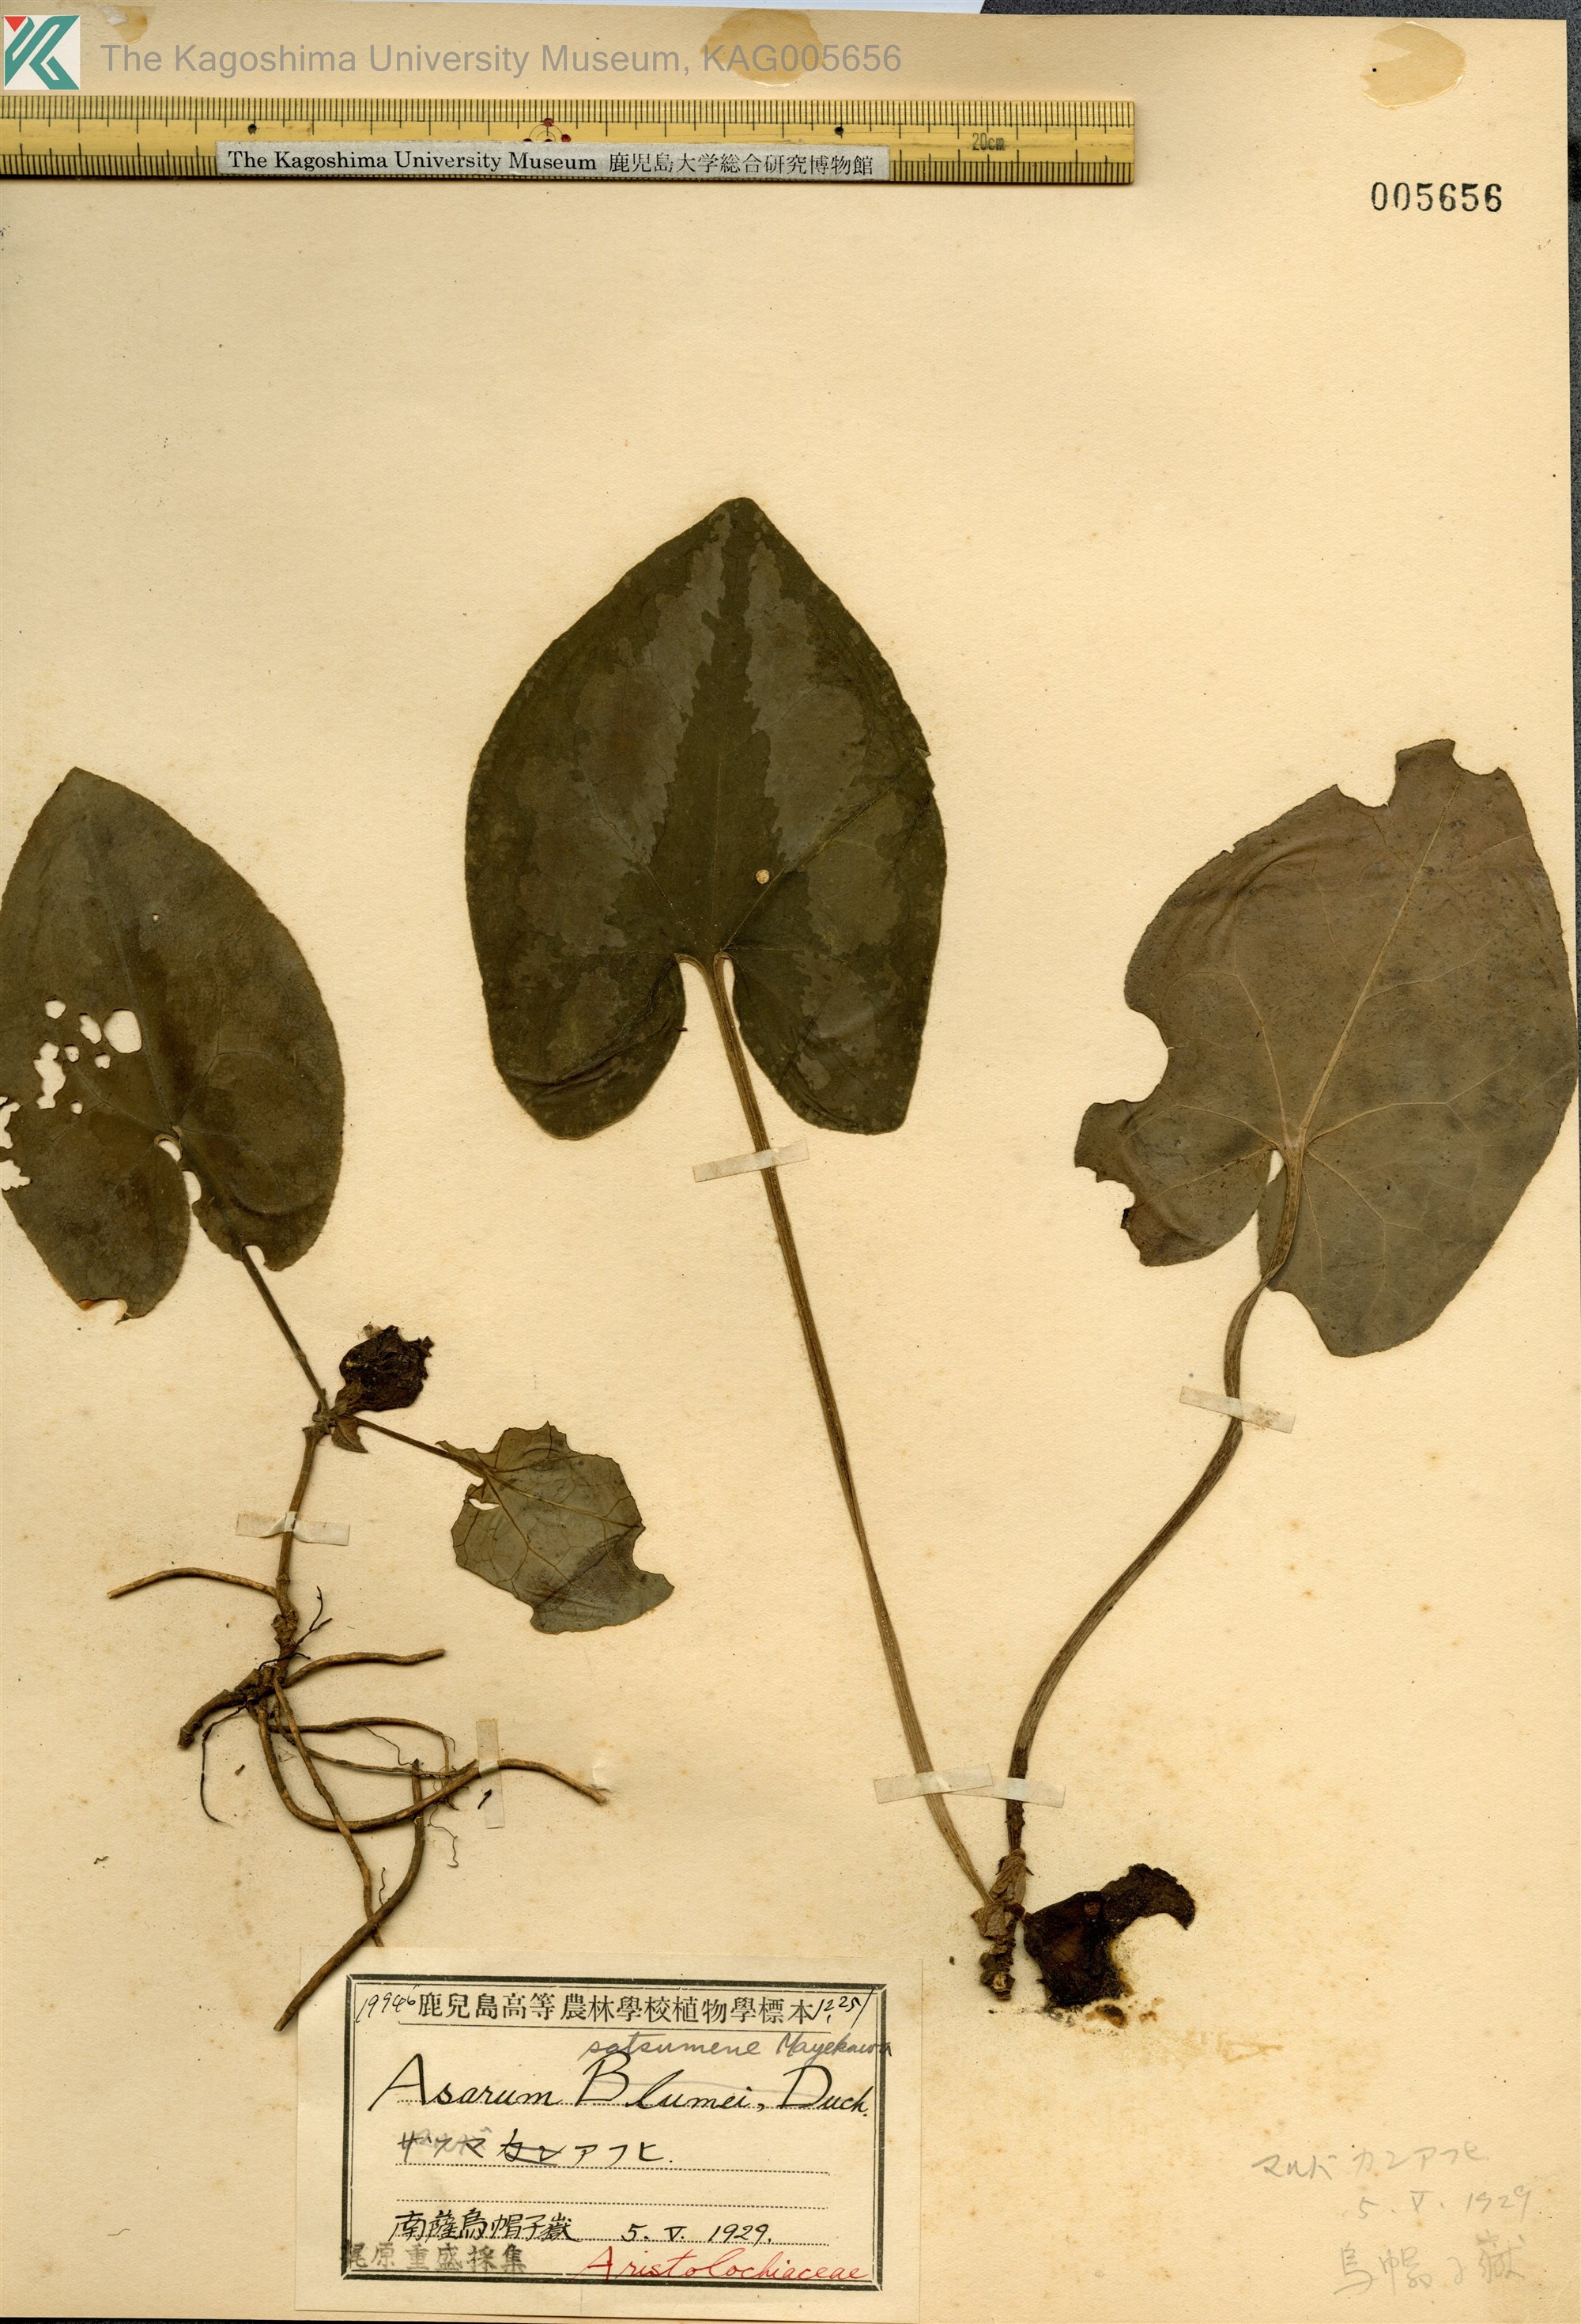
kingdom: Plantae
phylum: Tracheophyta
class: Magnoliopsida
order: Piperales
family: Aristolochiaceae
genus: Asarum
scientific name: Asarum satsumense
